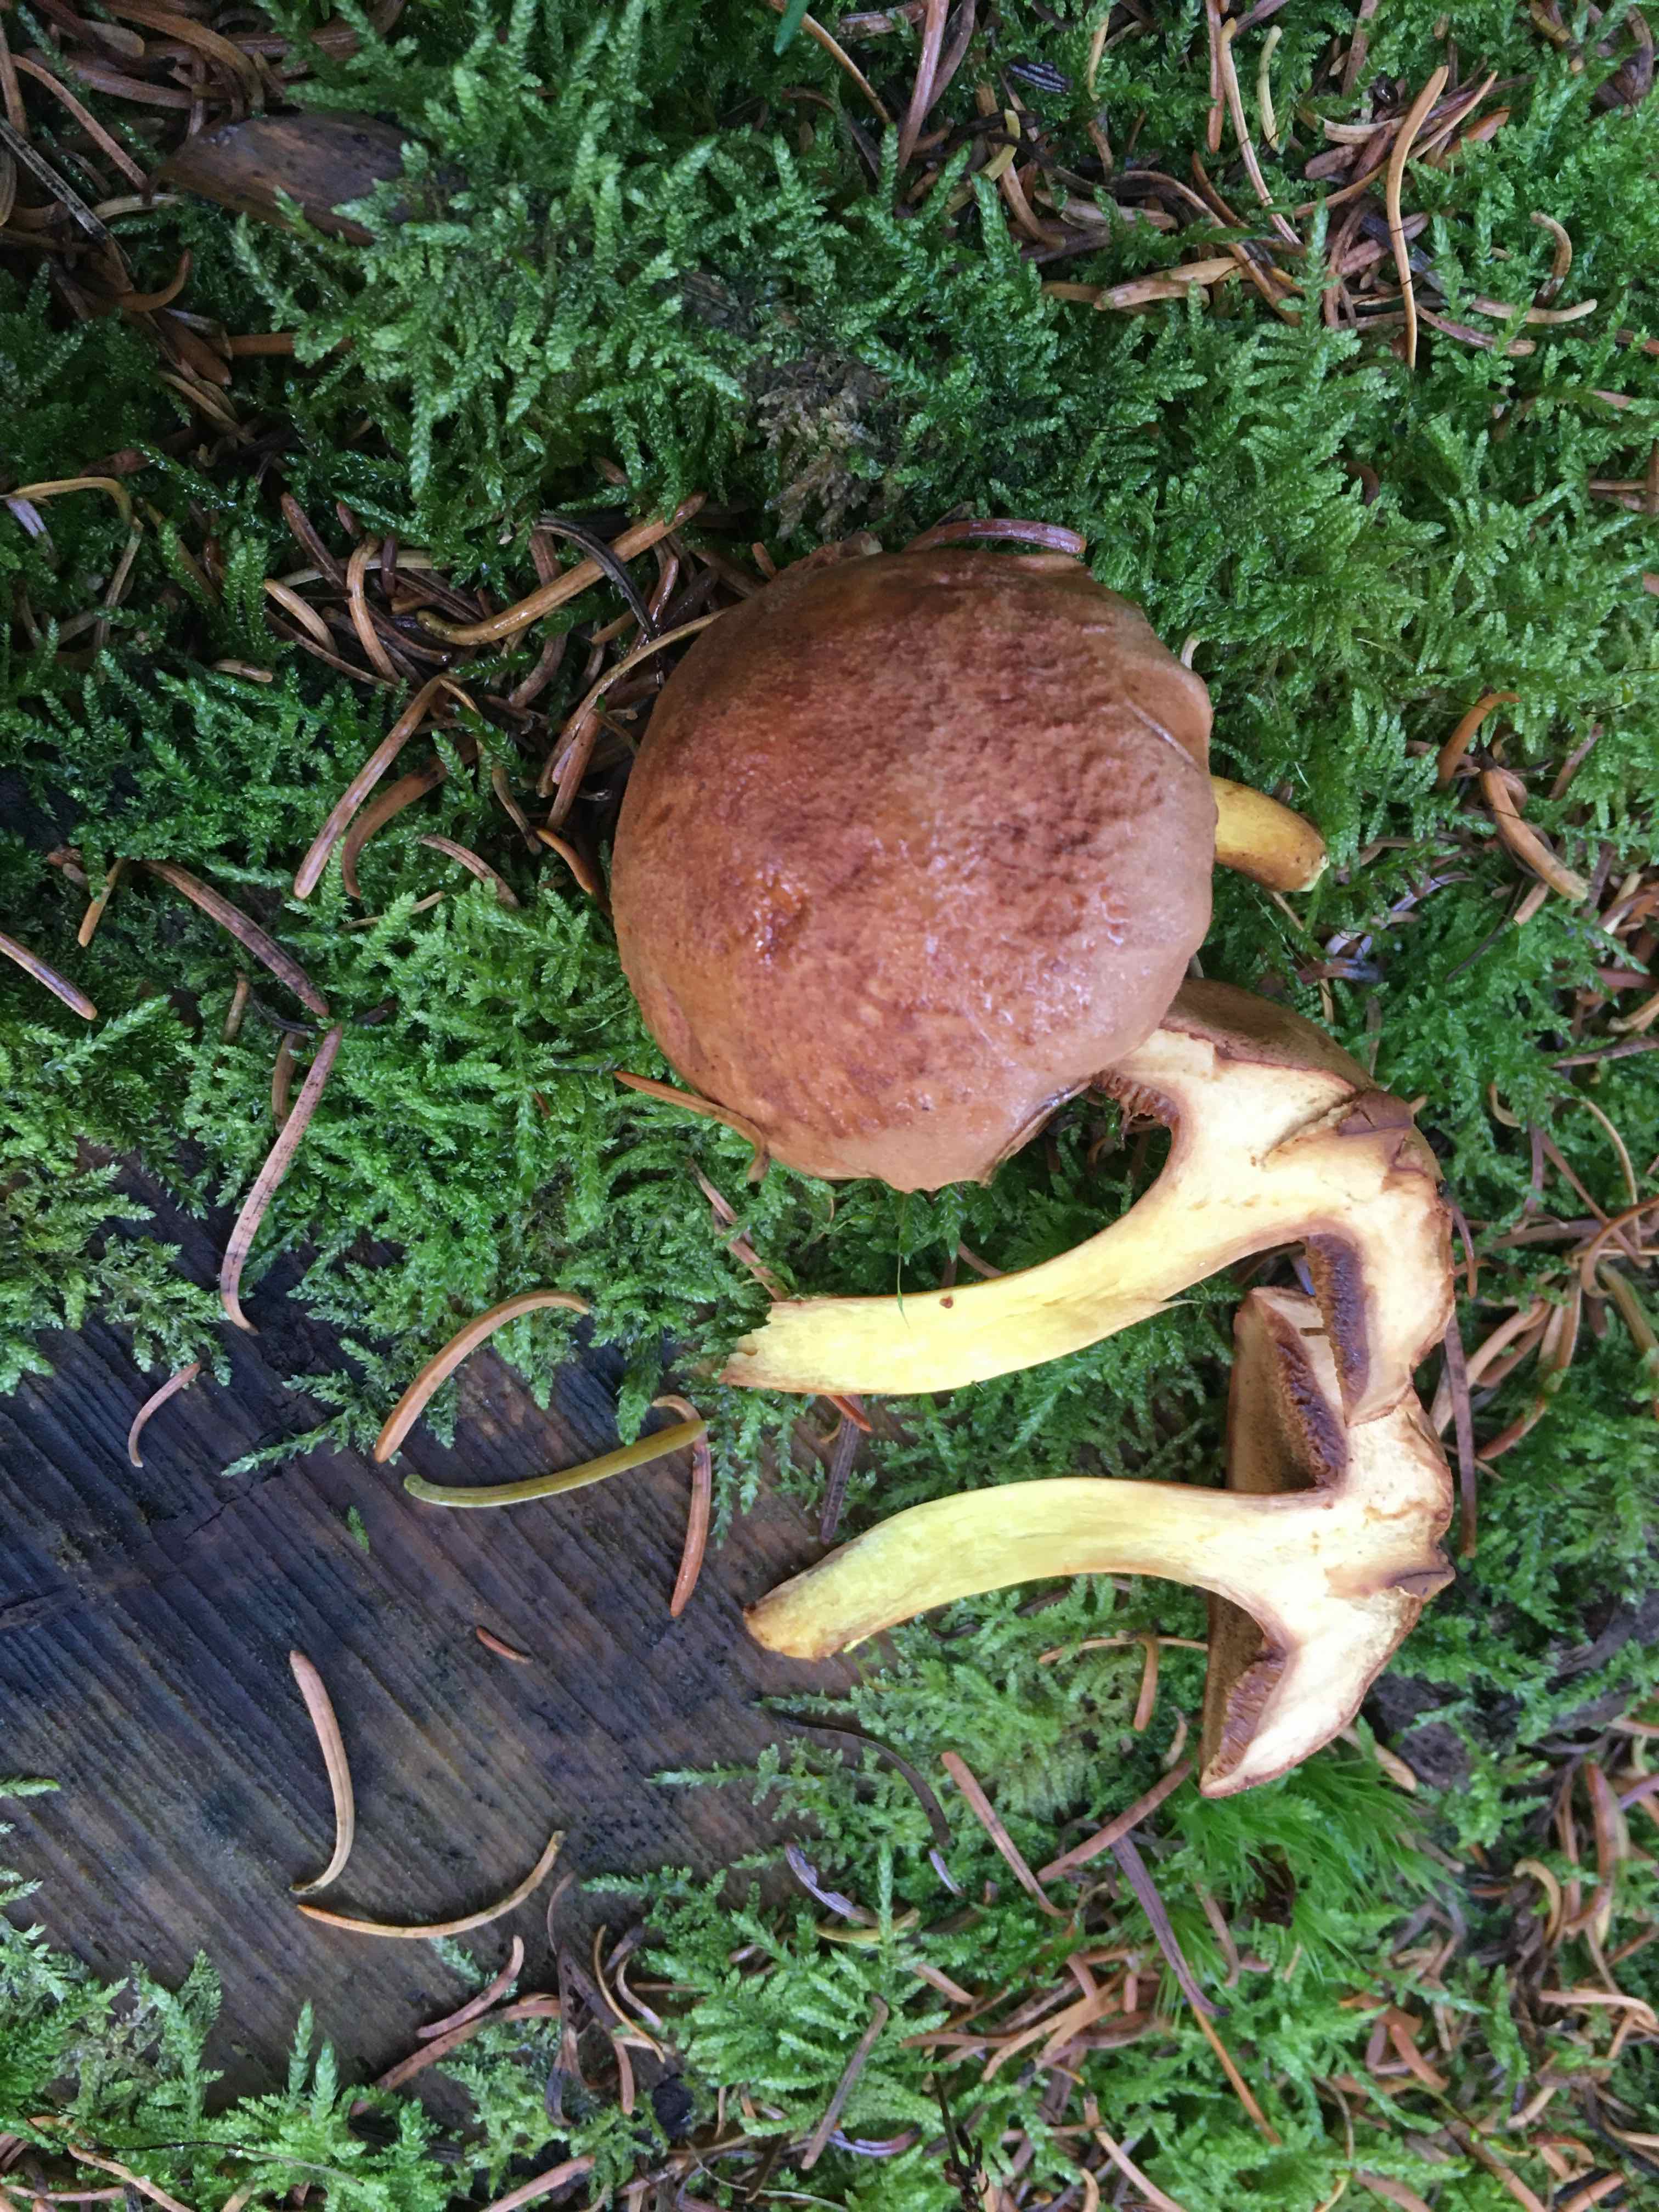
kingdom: Fungi
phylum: Basidiomycota
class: Agaricomycetes
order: Boletales
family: Boletaceae
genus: Chalciporus
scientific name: Chalciporus piperatus
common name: peberrørhat
